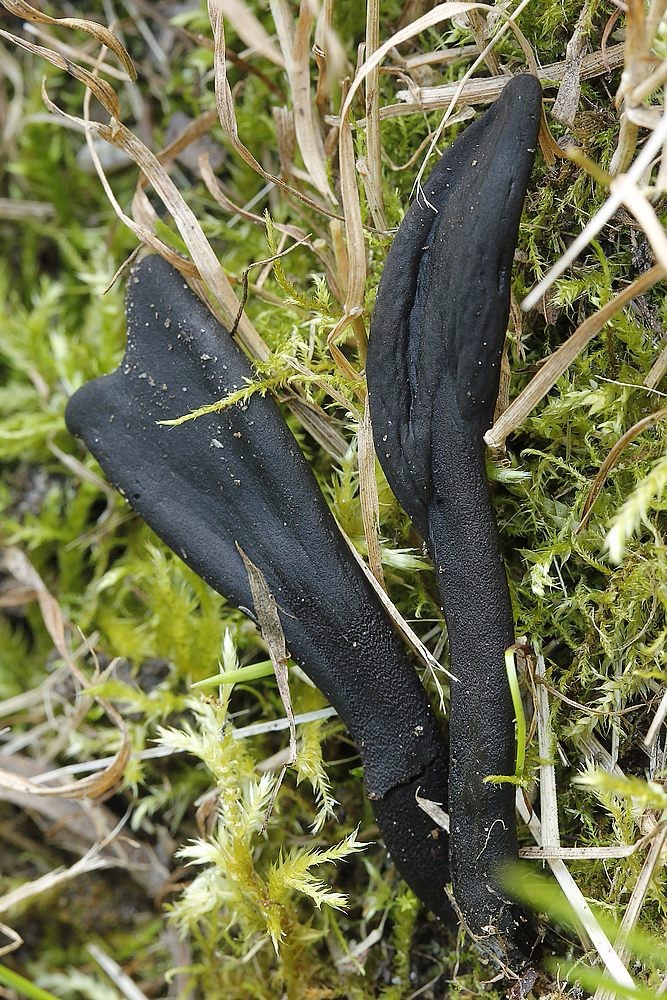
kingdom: Fungi
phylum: Ascomycota
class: Geoglossomycetes
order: Geoglossales
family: Geoglossaceae
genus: Geoglossum
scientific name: Geoglossum cookeianum
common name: bred jordtunge
